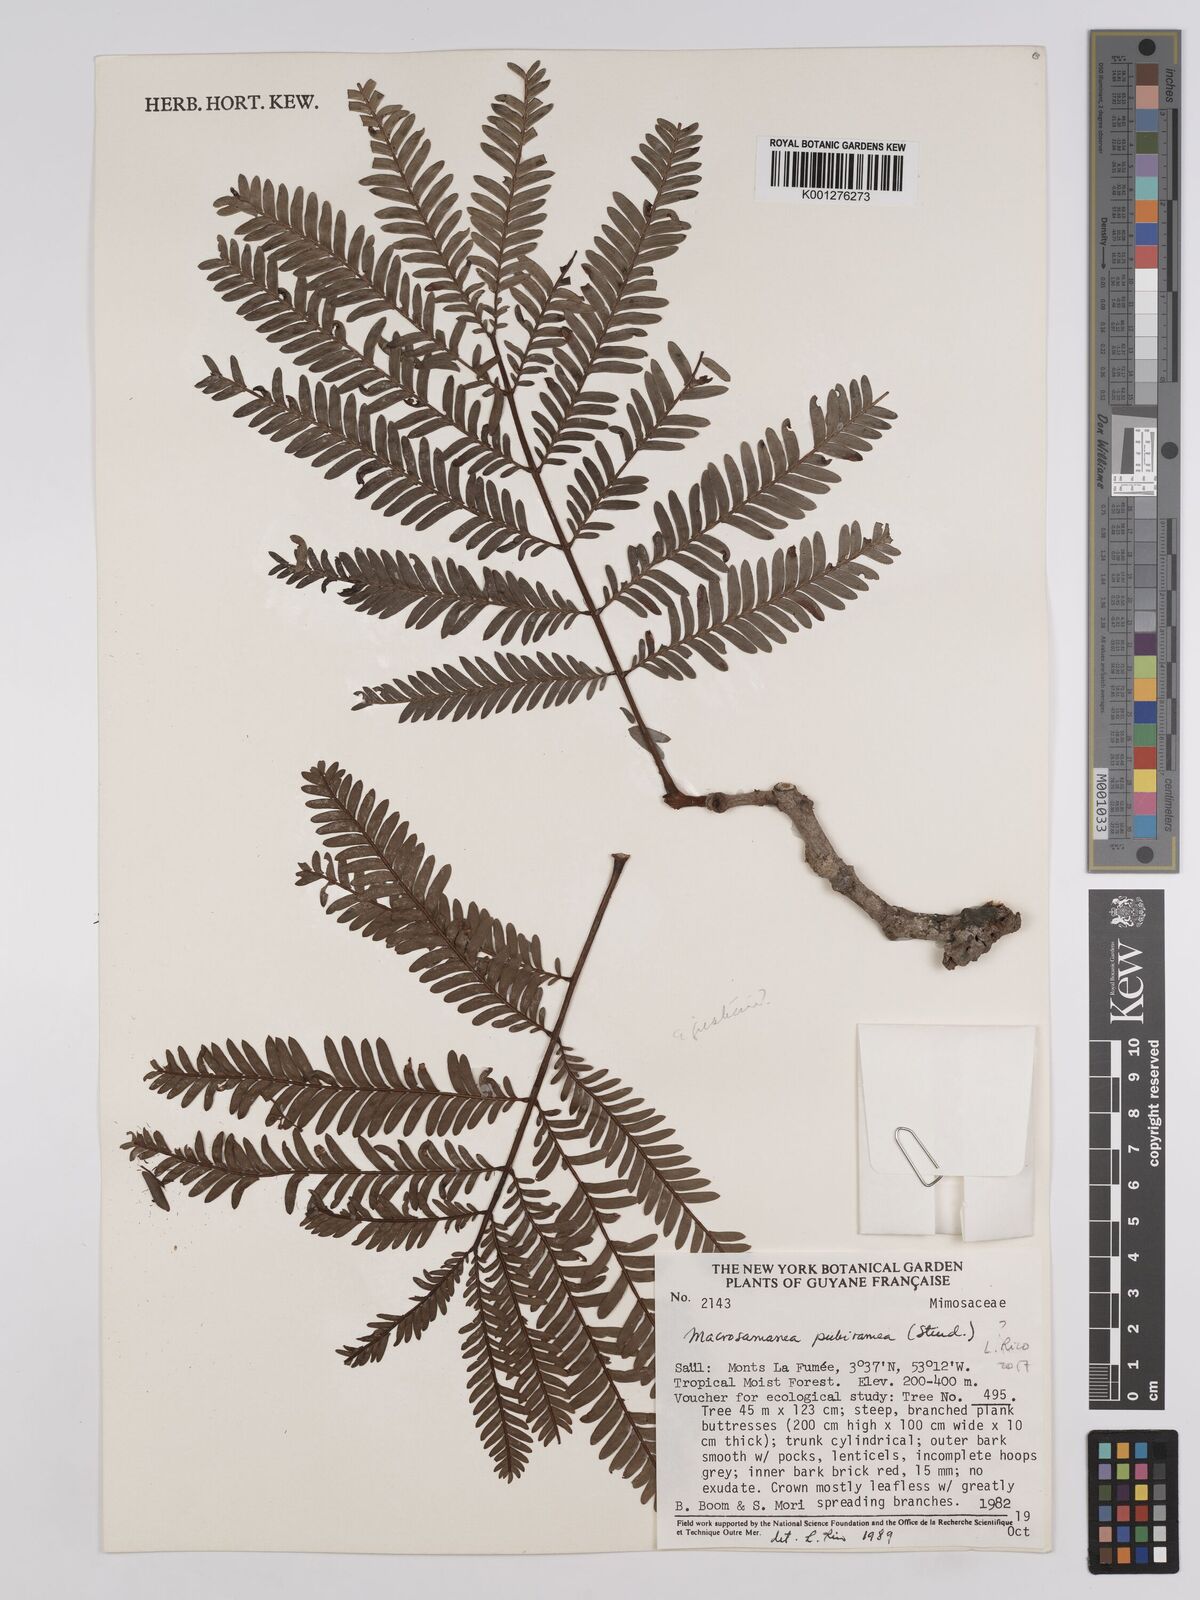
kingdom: Plantae
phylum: Tracheophyta
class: Magnoliopsida
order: Fabales
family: Fabaceae
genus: Macrosamanea
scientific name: Macrosamanea pubiramea
